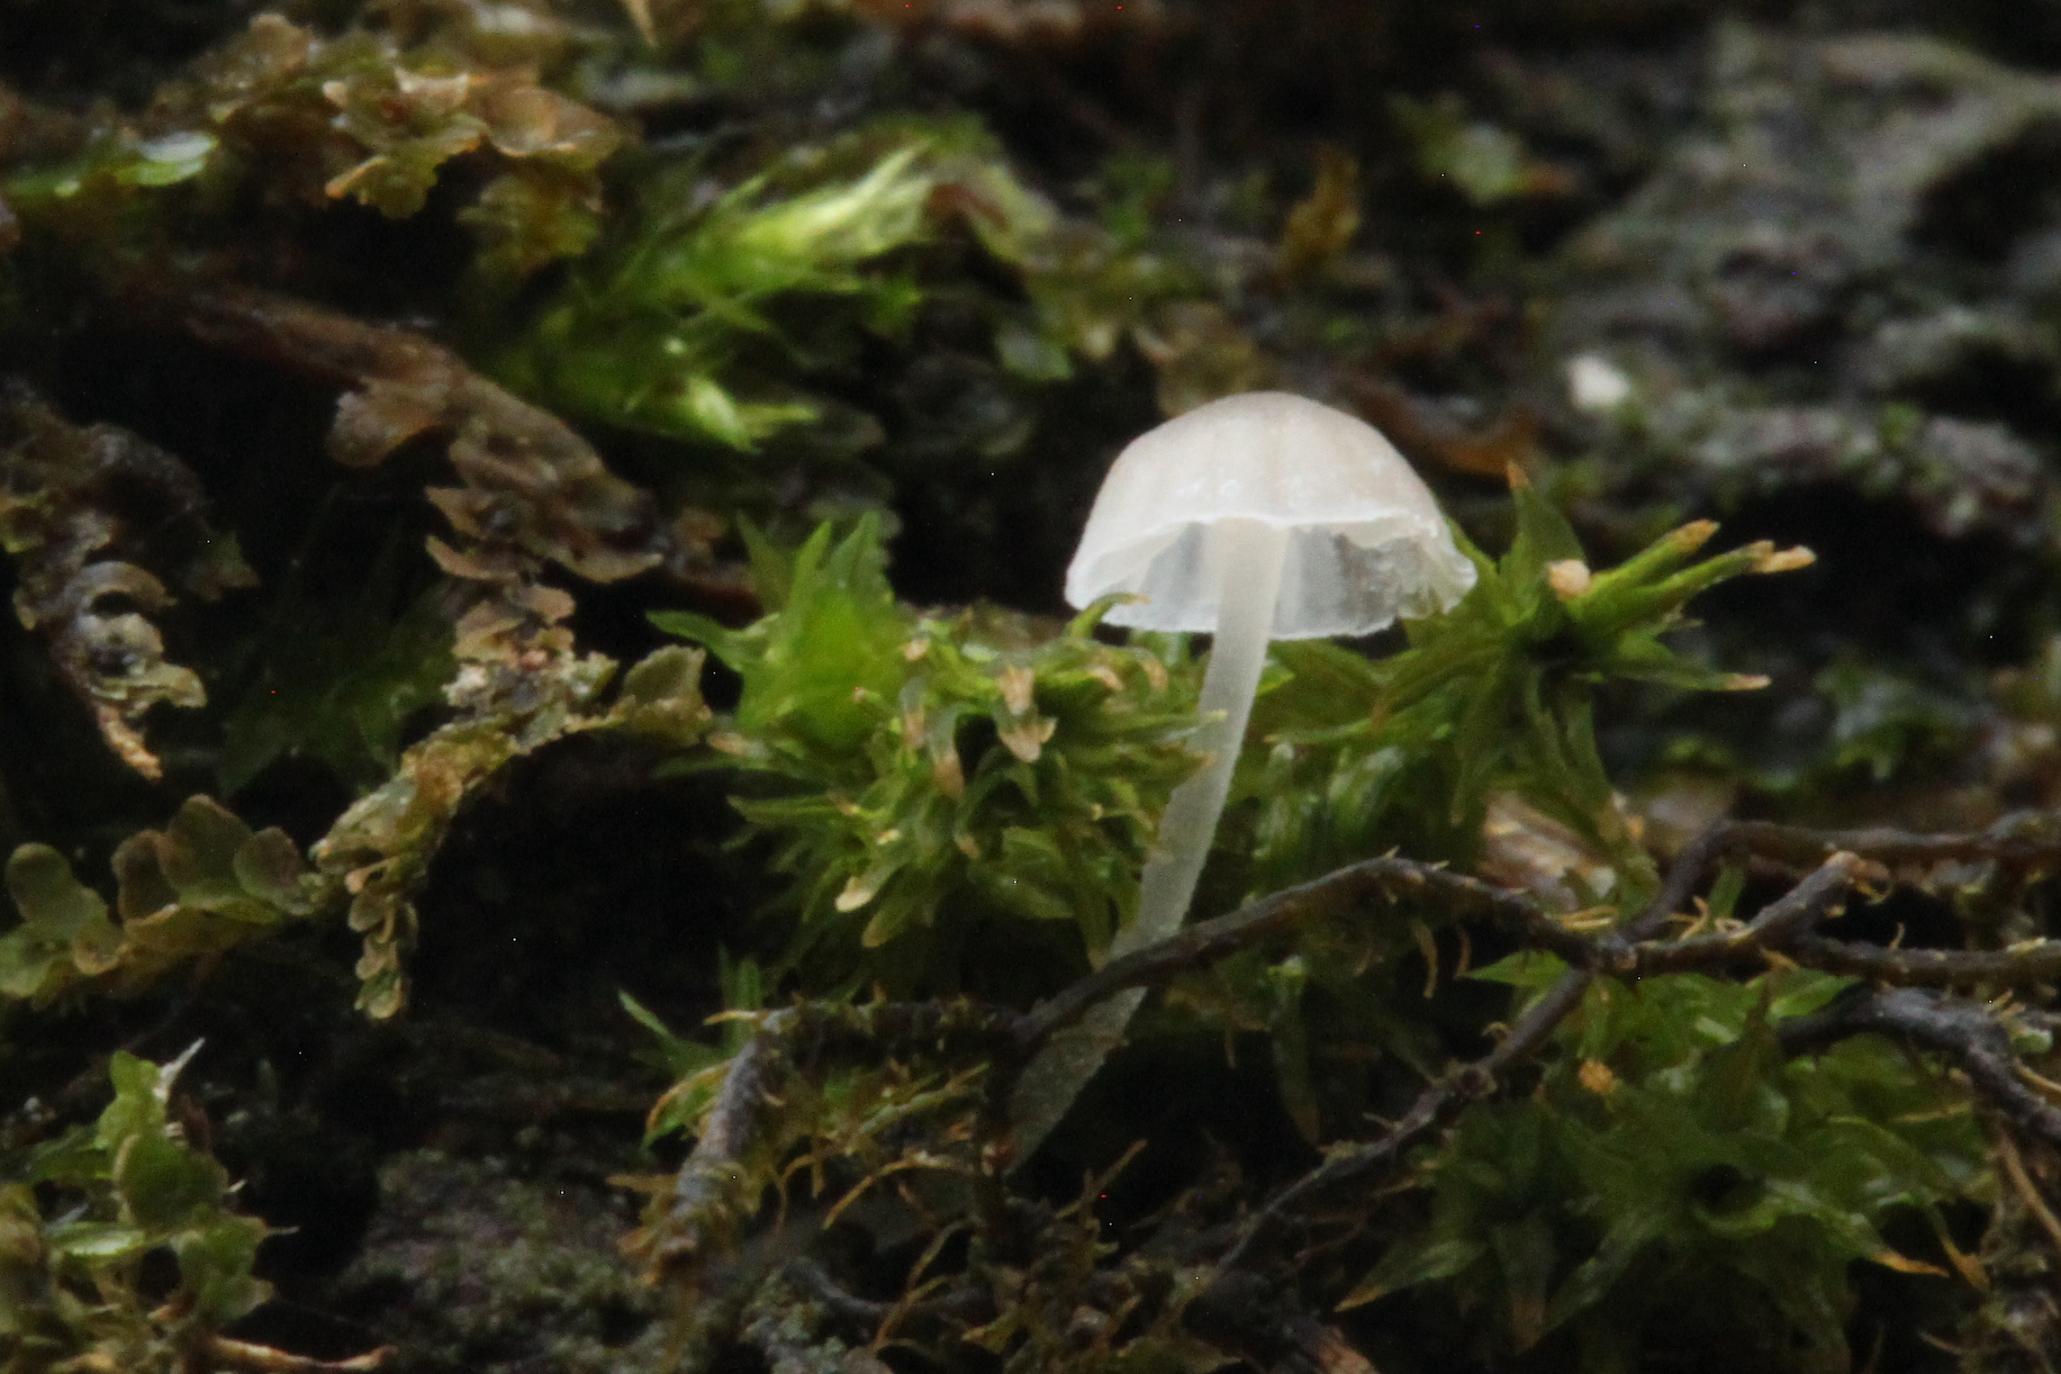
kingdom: Fungi
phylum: Basidiomycota
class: Agaricomycetes
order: Agaricales
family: Porotheleaceae
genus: Phloeomana
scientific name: Phloeomana hiemalis
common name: sen huesvamp
